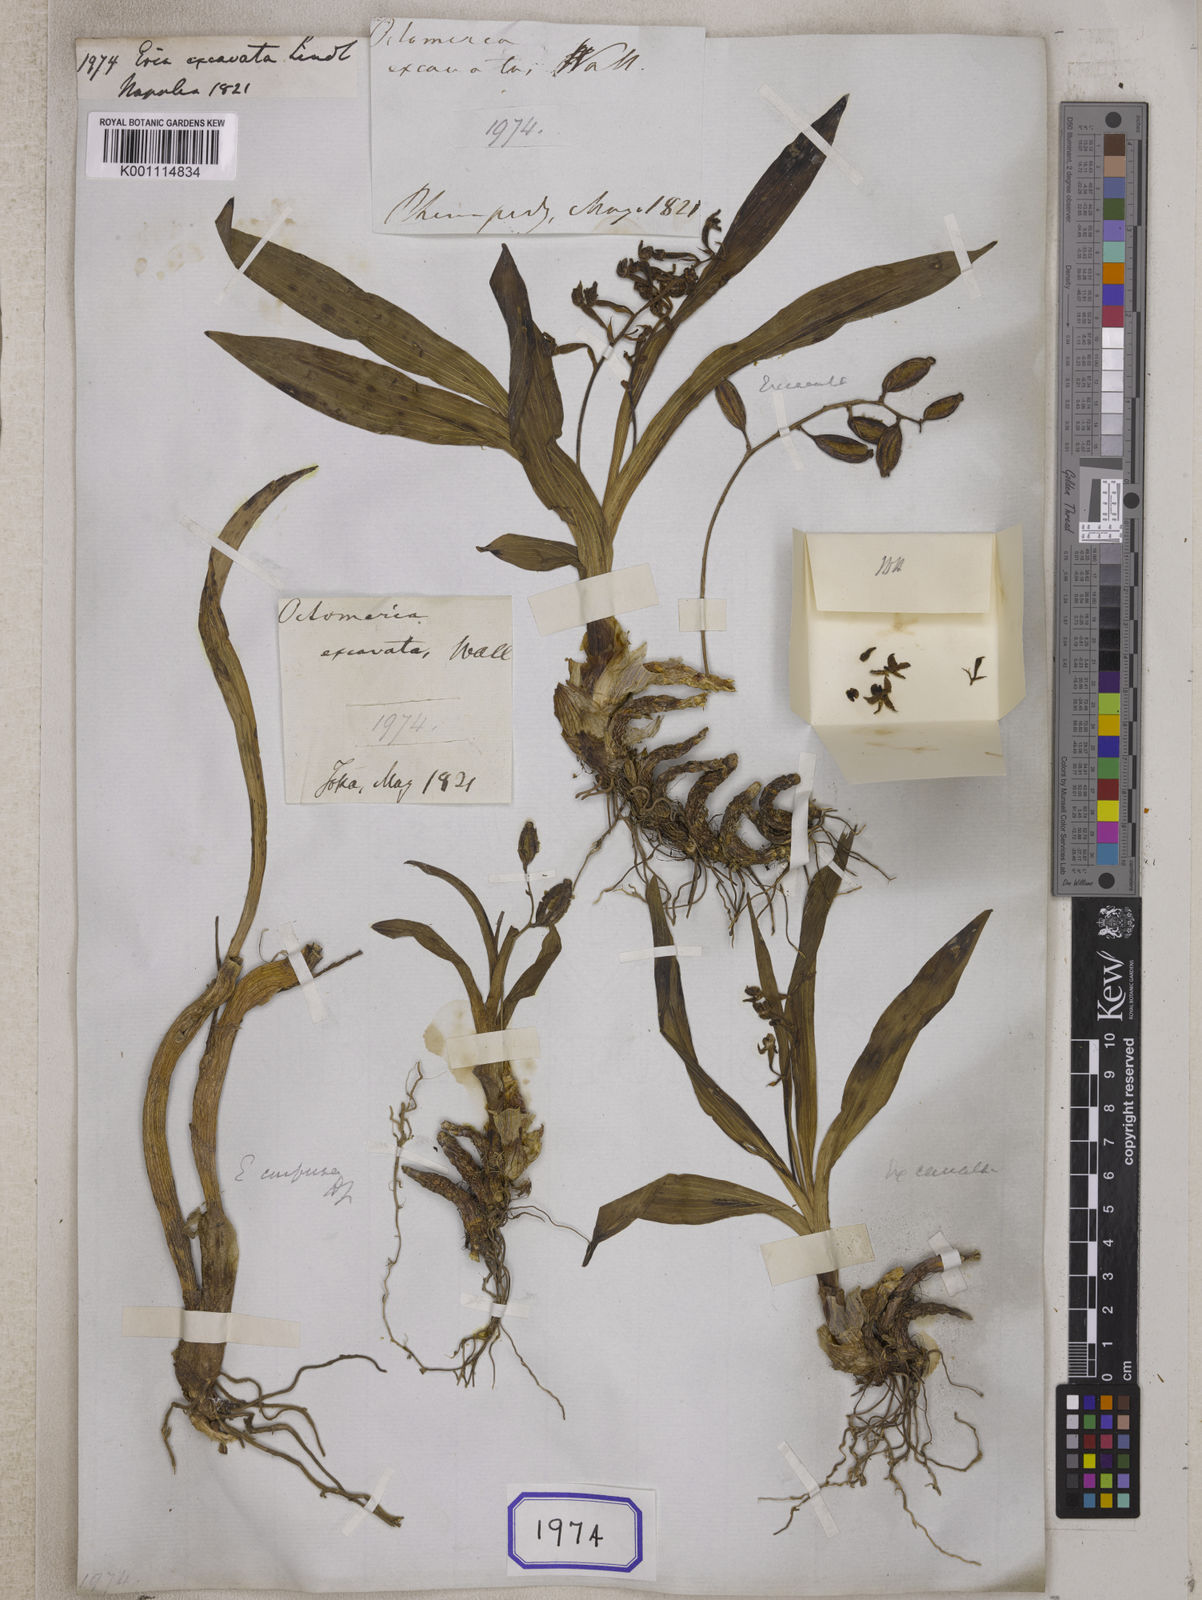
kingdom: Plantae
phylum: Tracheophyta
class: Liliopsida
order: Asparagales
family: Orchidaceae
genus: Pinalia
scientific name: Pinalia excavata
